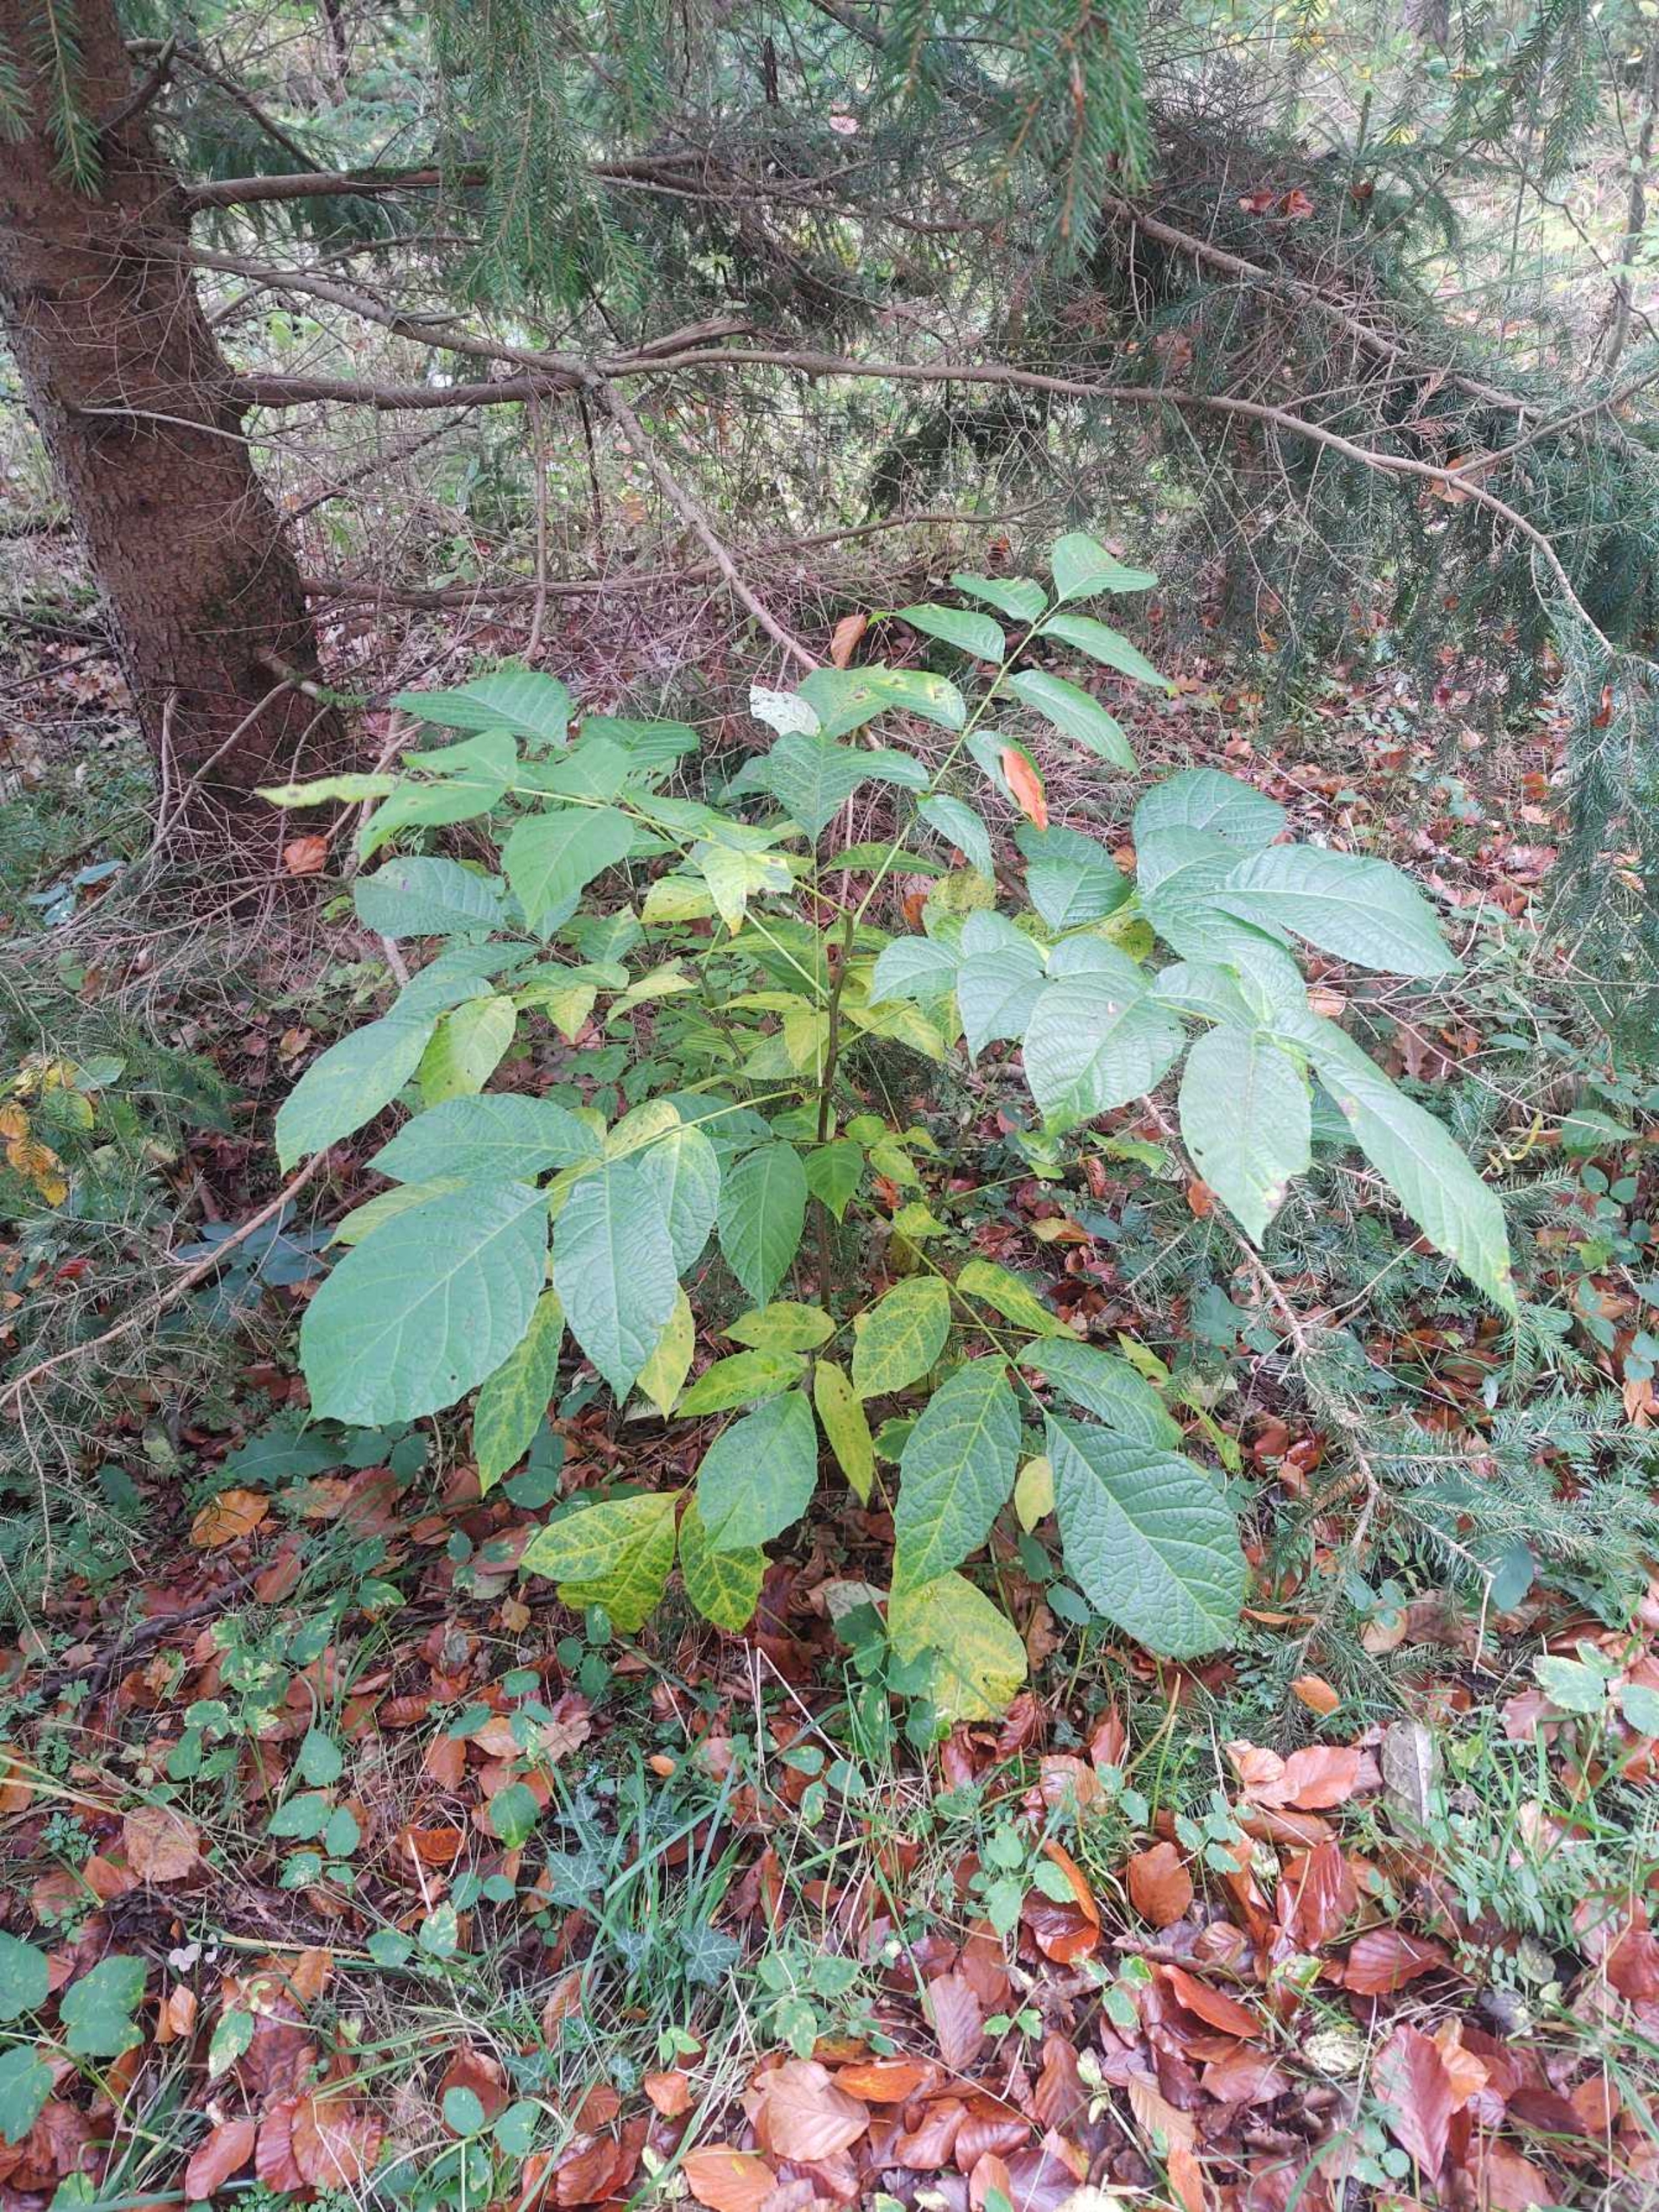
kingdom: Plantae
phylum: Tracheophyta
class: Magnoliopsida
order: Fagales
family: Juglandaceae
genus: Juglans
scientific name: Juglans regia
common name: Almindelig valnød
